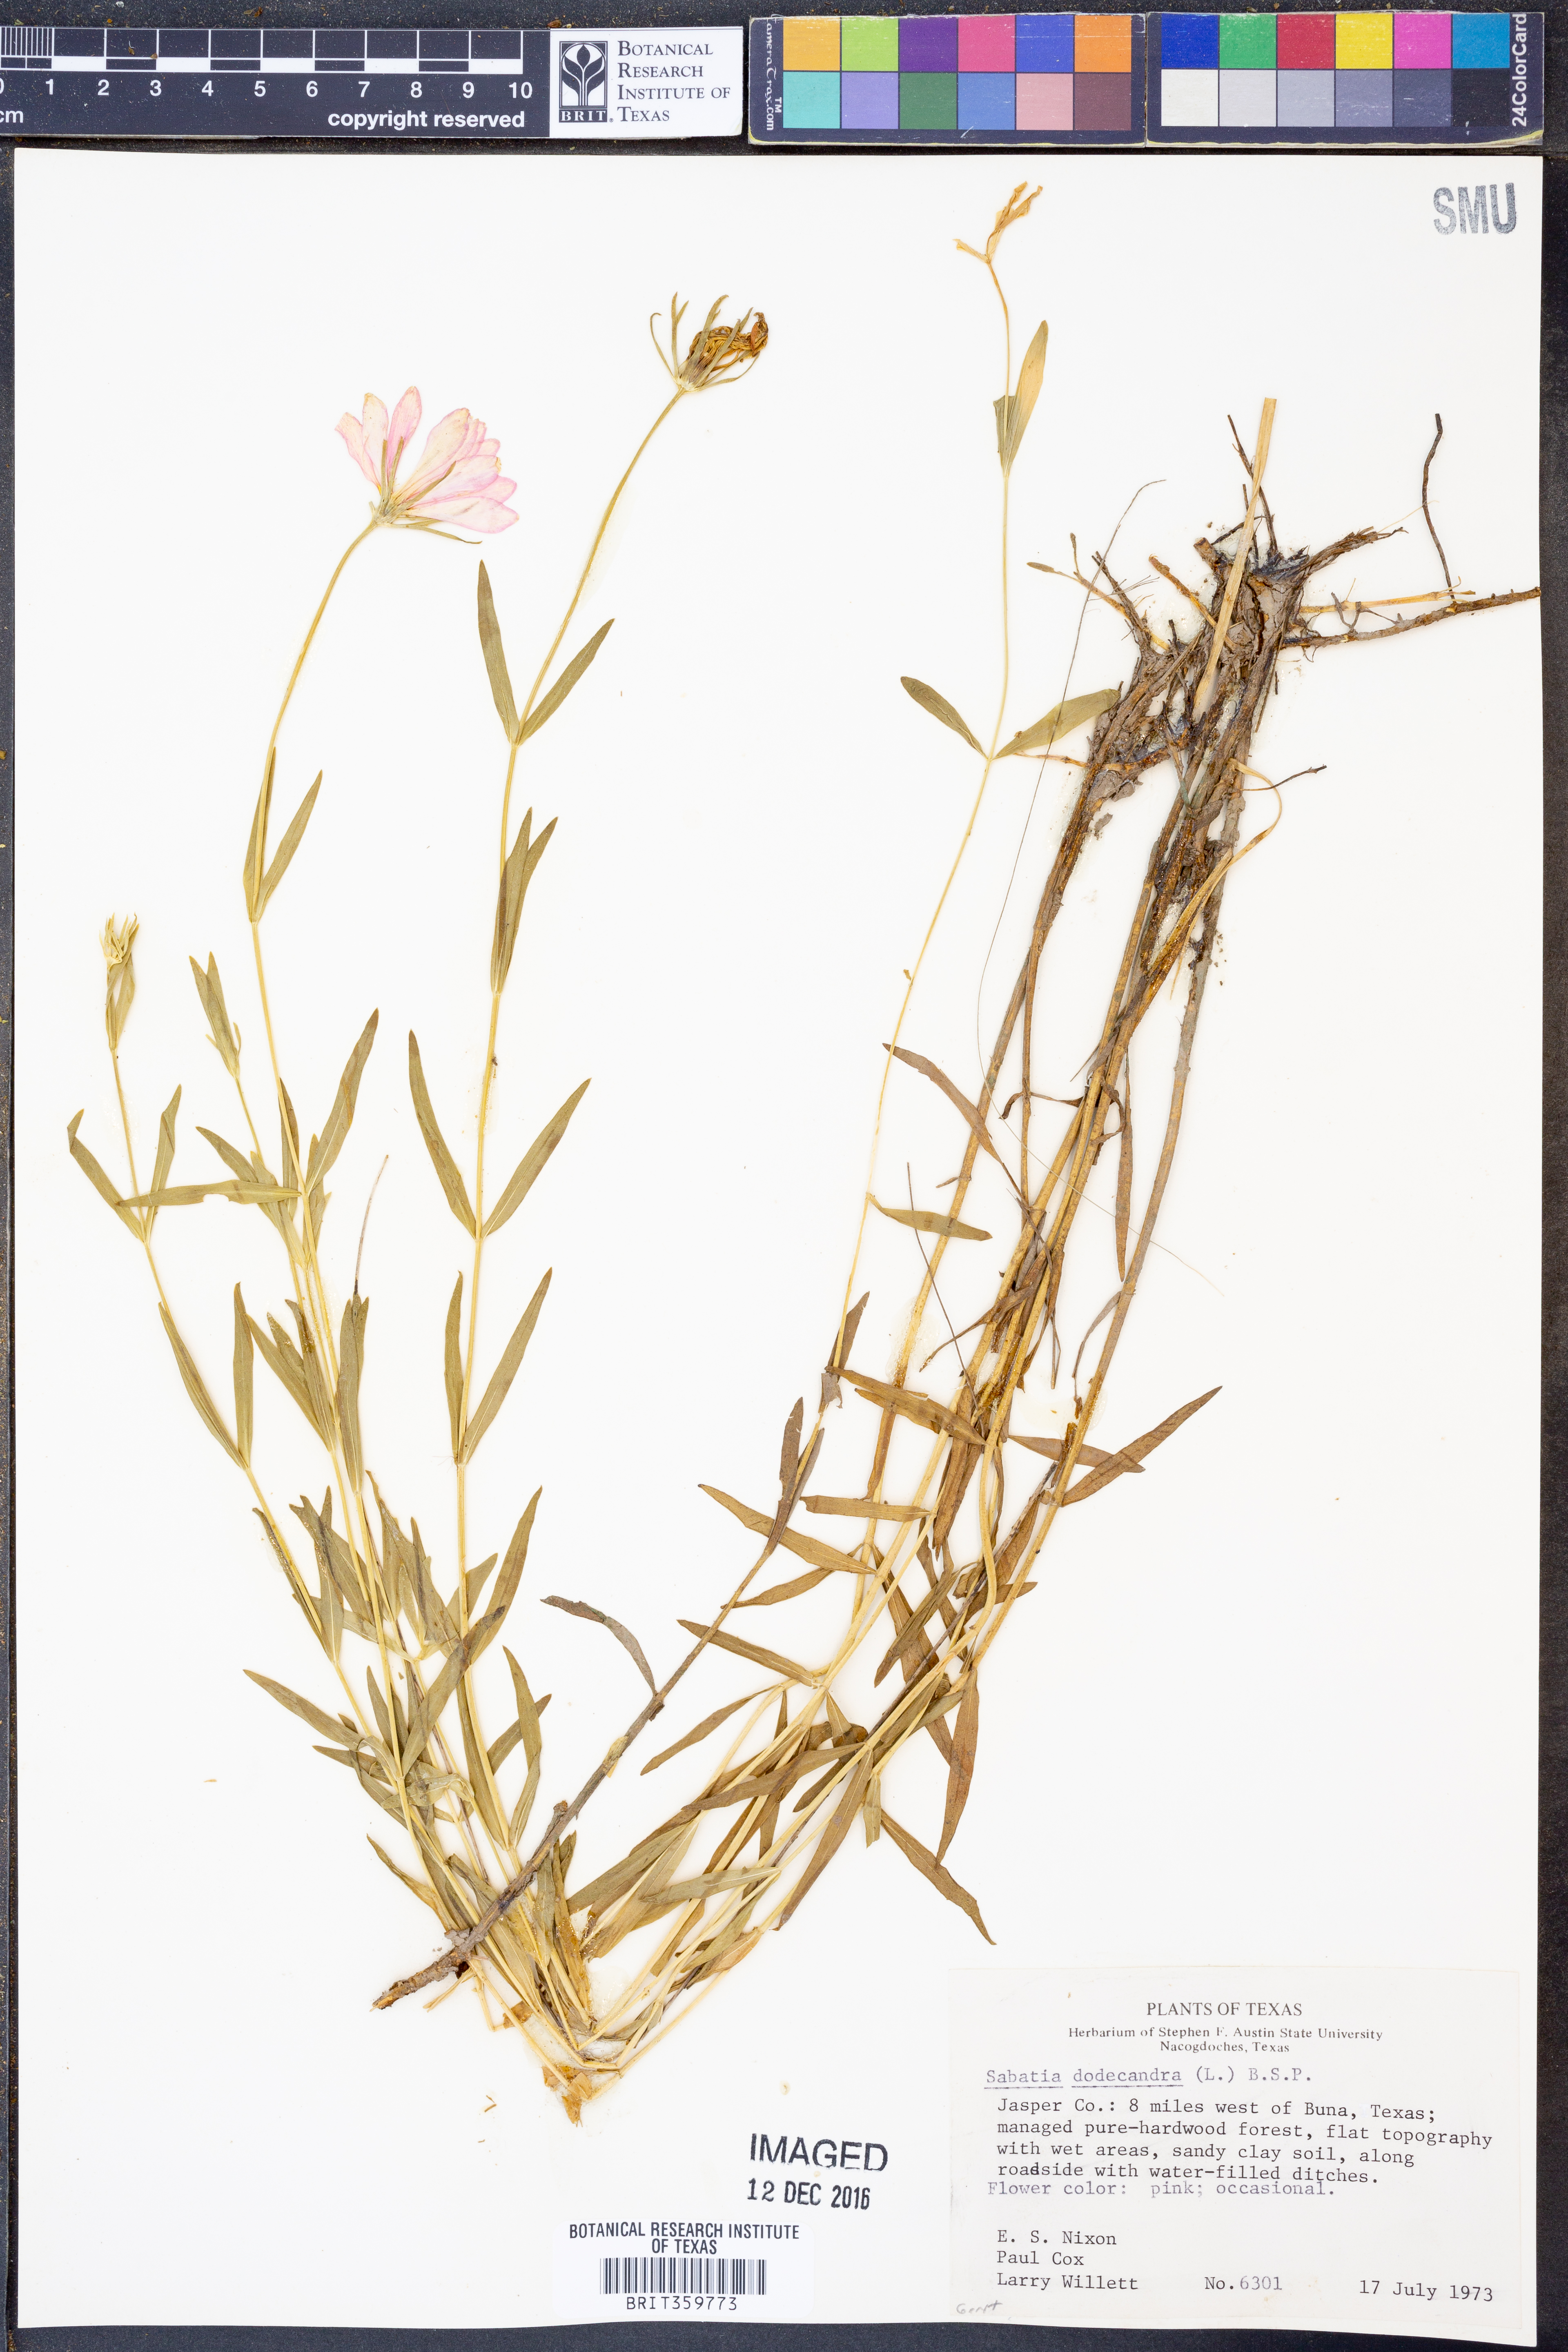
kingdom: Plantae
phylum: Tracheophyta
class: Magnoliopsida
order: Gentianales
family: Gentianaceae
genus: Sabatia
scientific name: Sabatia dodecandra
